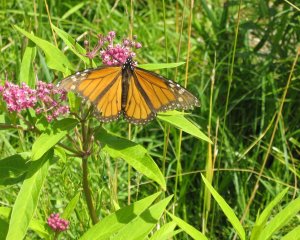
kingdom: Animalia
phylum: Arthropoda
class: Insecta
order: Lepidoptera
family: Nymphalidae
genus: Danaus
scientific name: Danaus plexippus
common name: Monarch
